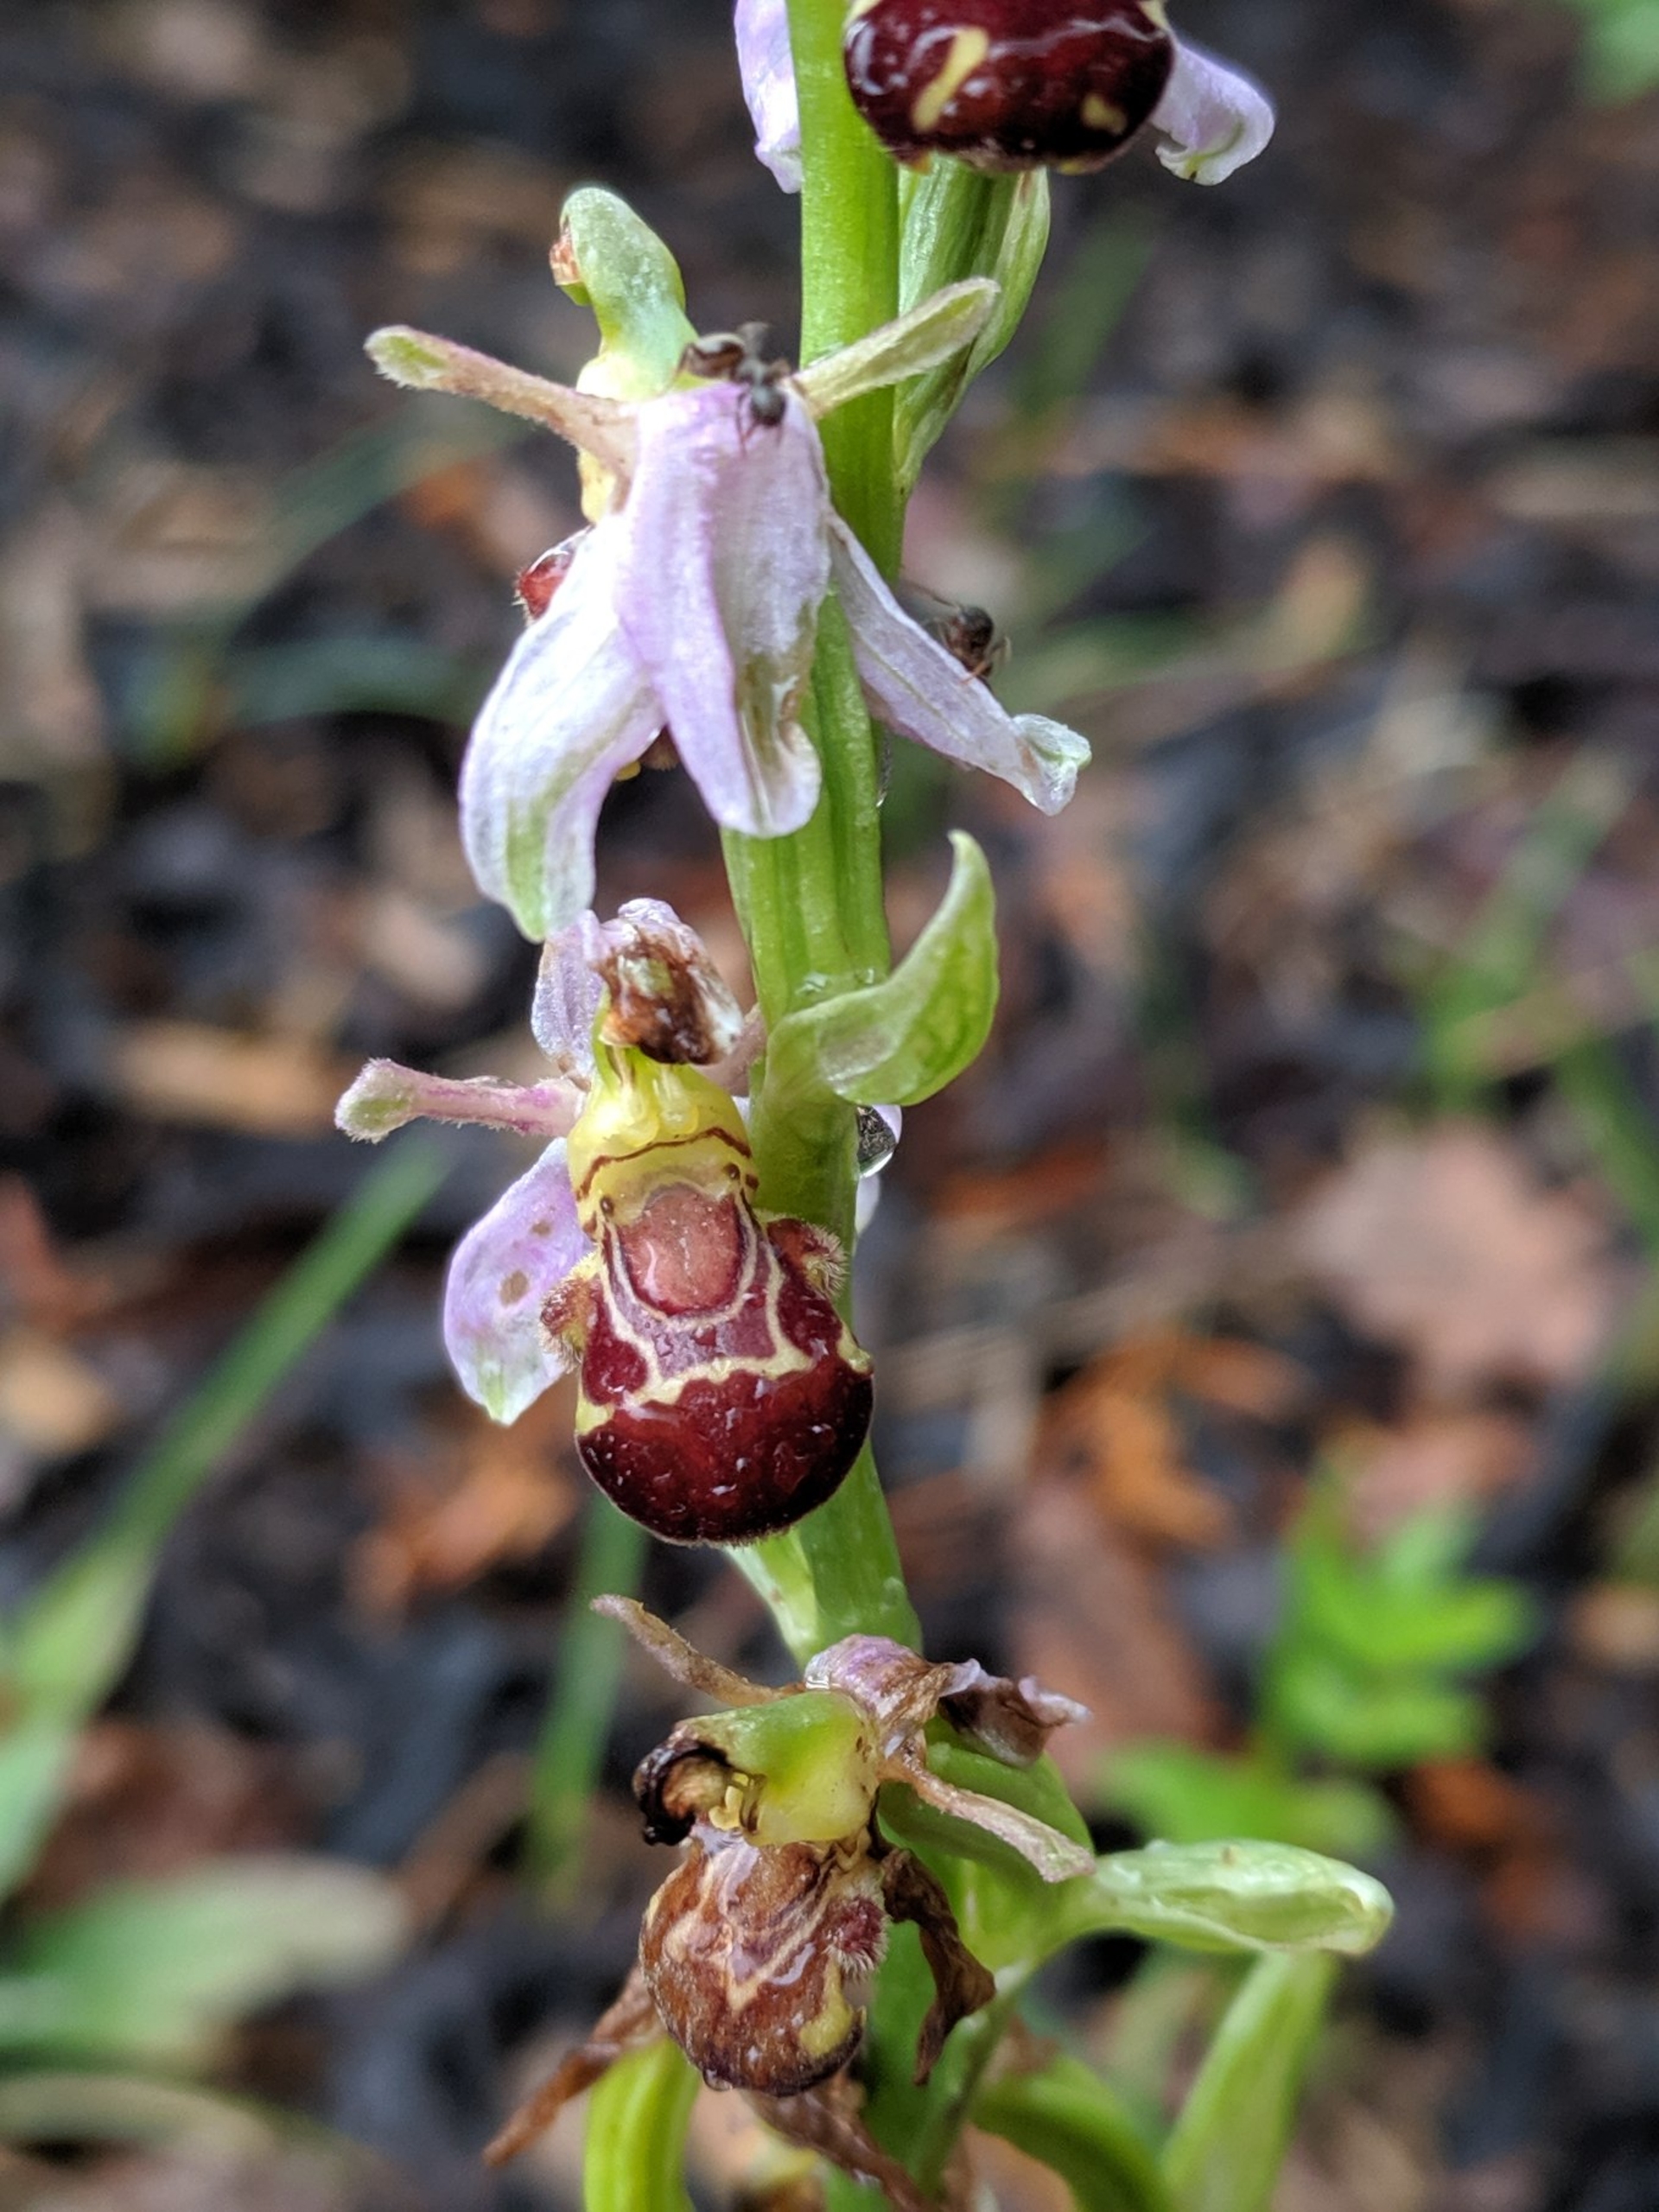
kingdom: Plantae
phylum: Tracheophyta
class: Liliopsida
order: Asparagales
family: Orchidaceae
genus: Ophrys
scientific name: Ophrys apifera
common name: Biblomst
